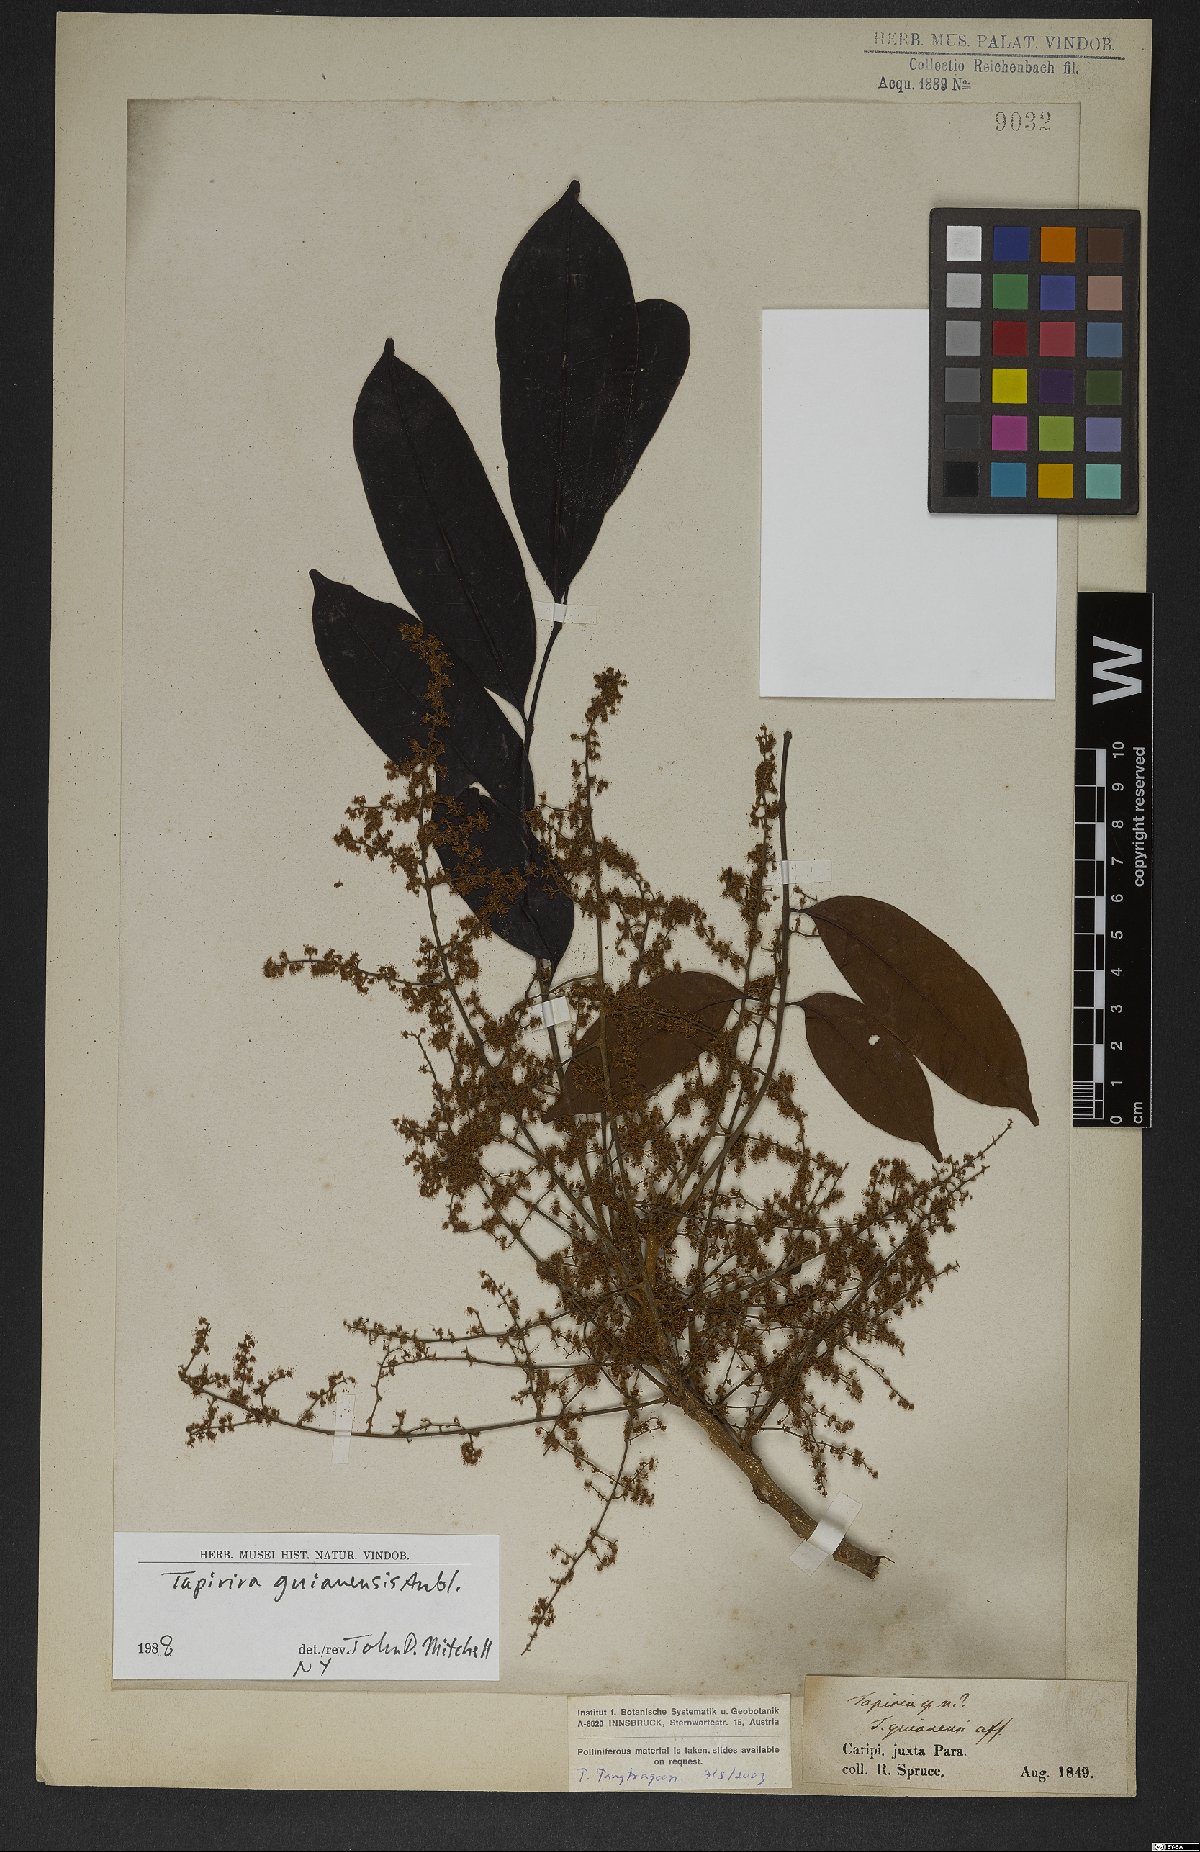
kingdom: Plantae
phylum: Tracheophyta
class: Magnoliopsida
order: Sapindales
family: Anacardiaceae
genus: Tapirira
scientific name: Tapirira guianensis
